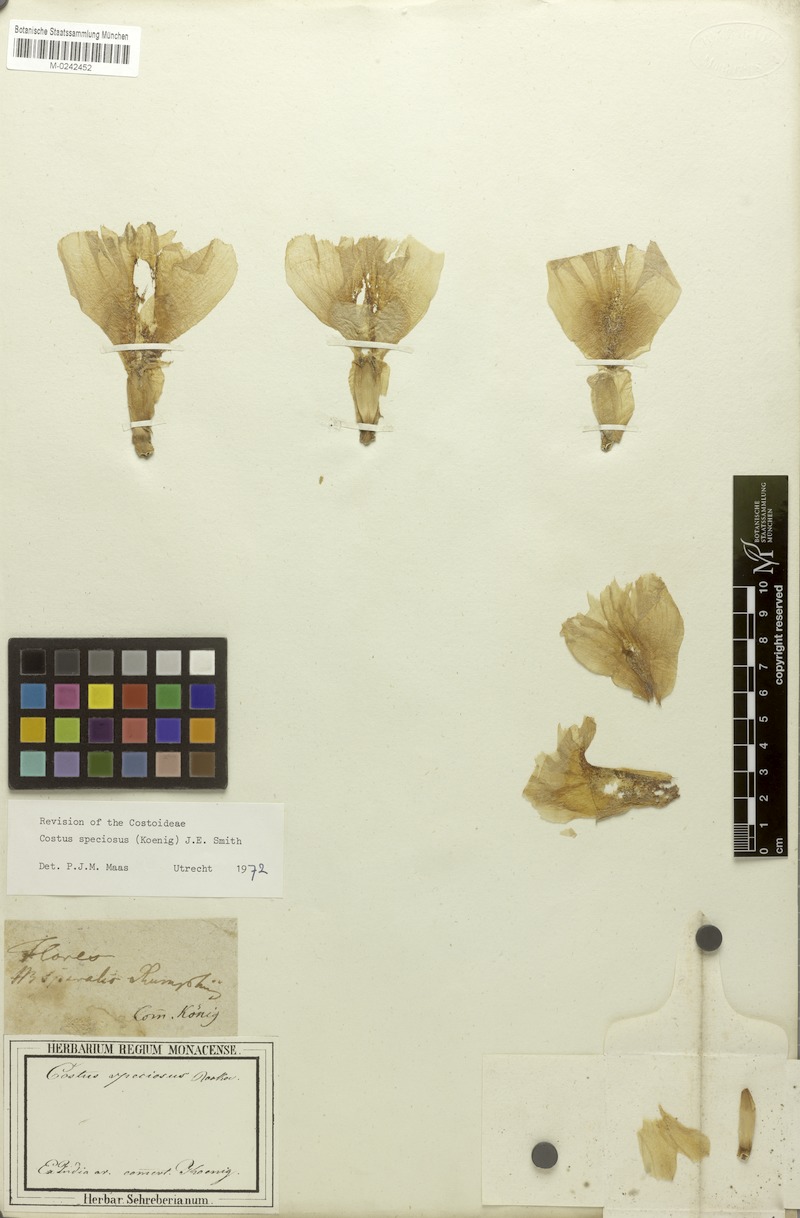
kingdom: Plantae
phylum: Tracheophyta
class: Liliopsida
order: Zingiberales
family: Costaceae
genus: Hellenia
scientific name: Hellenia speciosa
